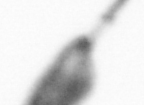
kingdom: Animalia
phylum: Arthropoda
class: Copepoda
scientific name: Copepoda
